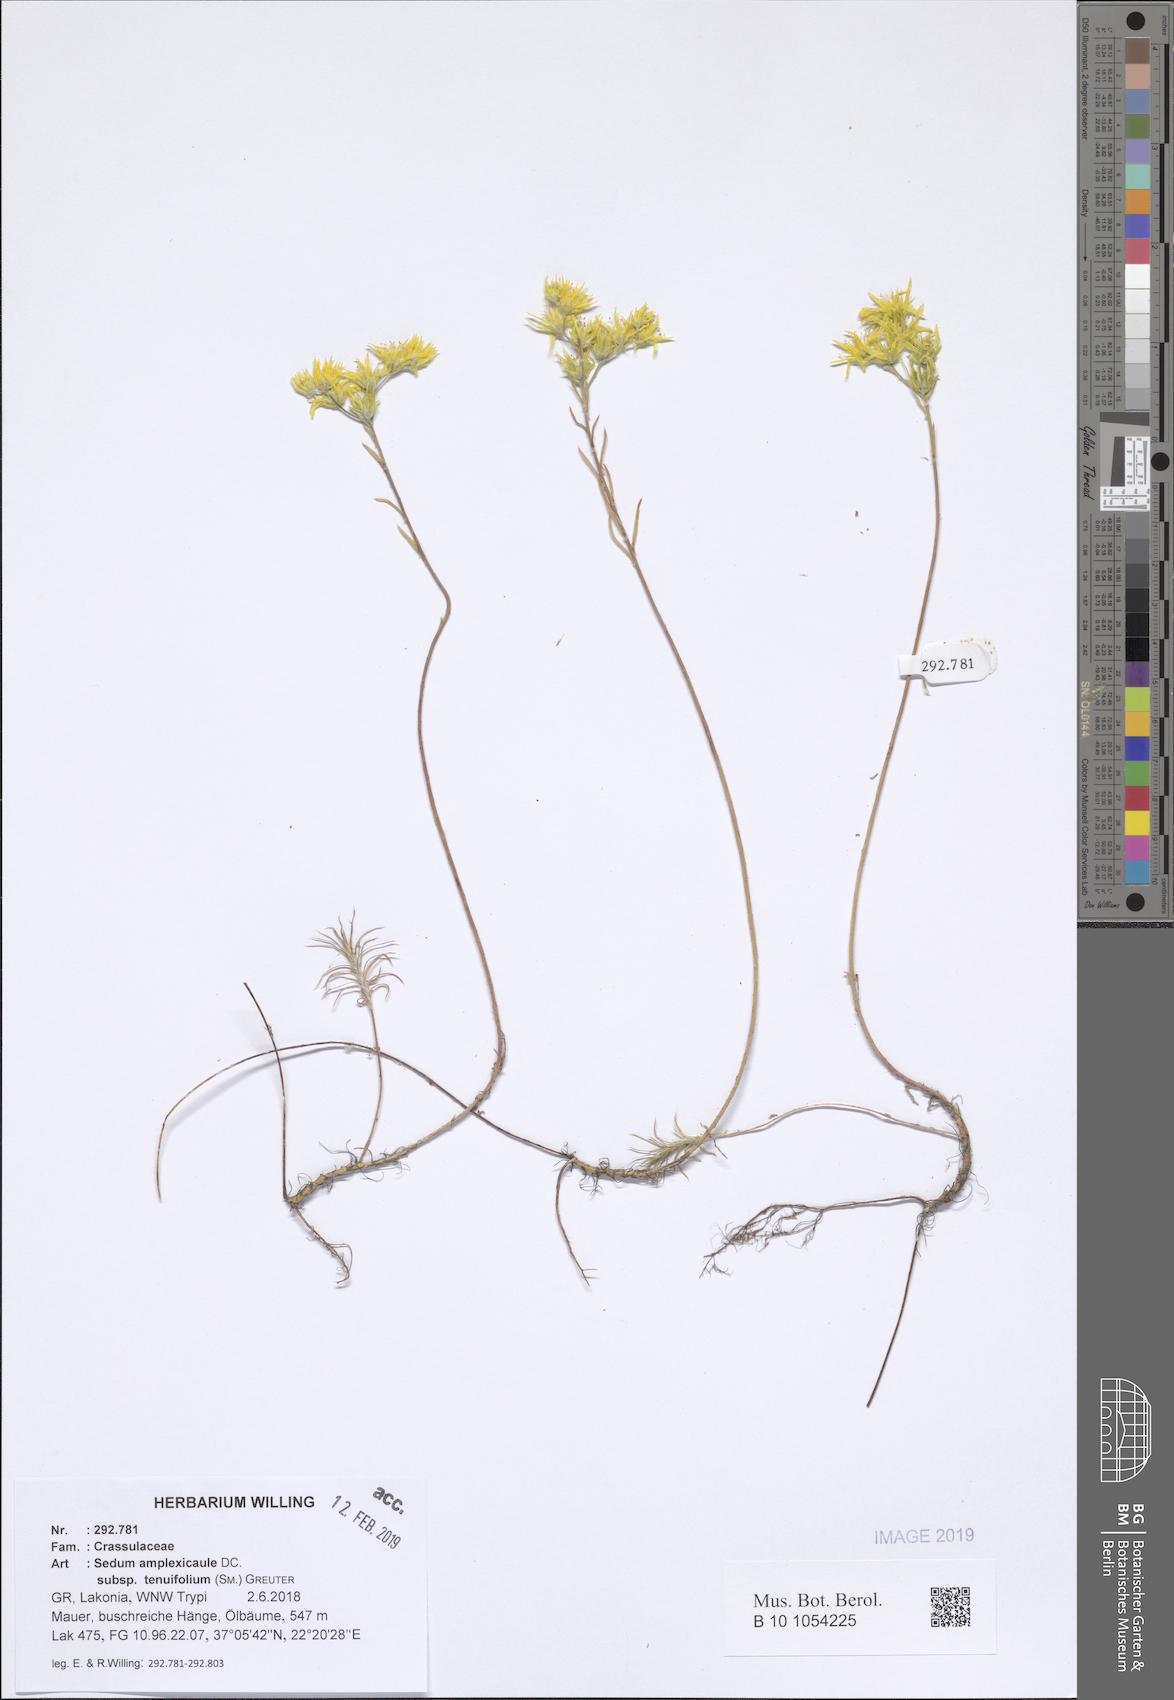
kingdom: Plantae
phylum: Tracheophyta
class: Magnoliopsida
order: Saxifragales
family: Crassulaceae
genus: Petrosedum
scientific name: Petrosedum tenuifolium
